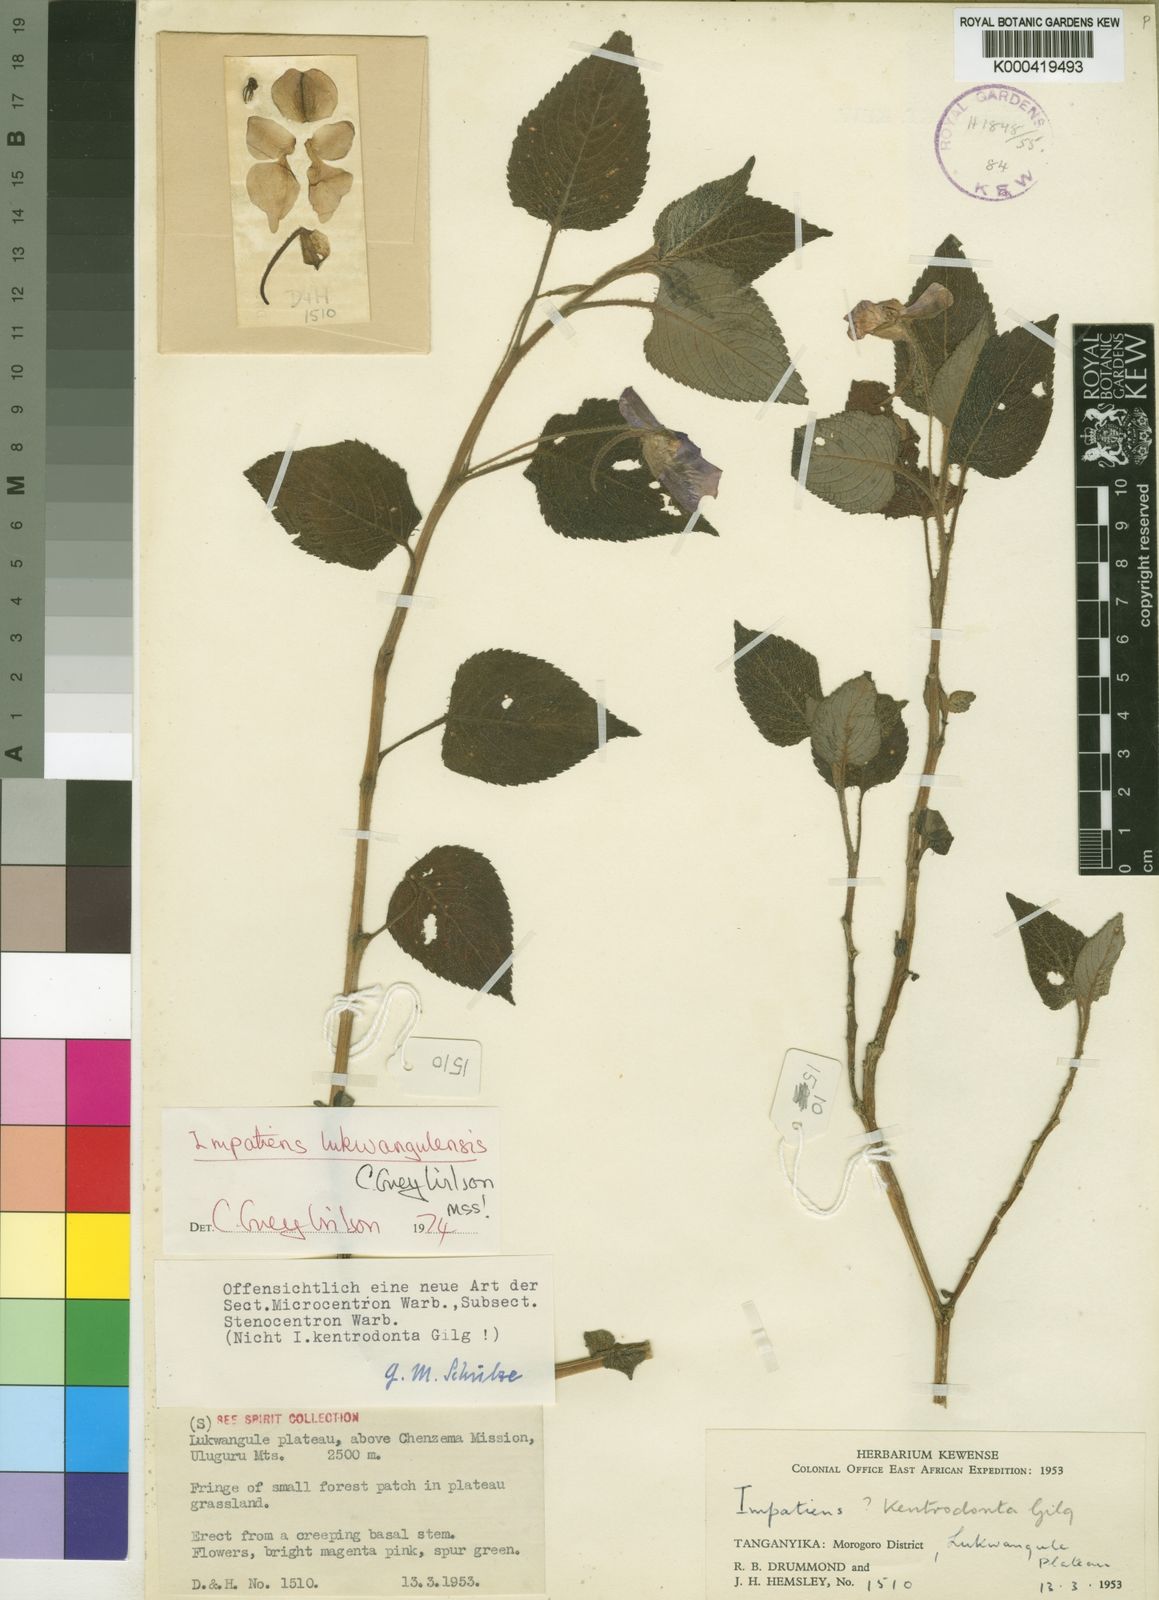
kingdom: Plantae
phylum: Tracheophyta
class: Magnoliopsida
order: Ericales
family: Balsaminaceae
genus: Impatiens
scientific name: Impatiens lukwangulensis
